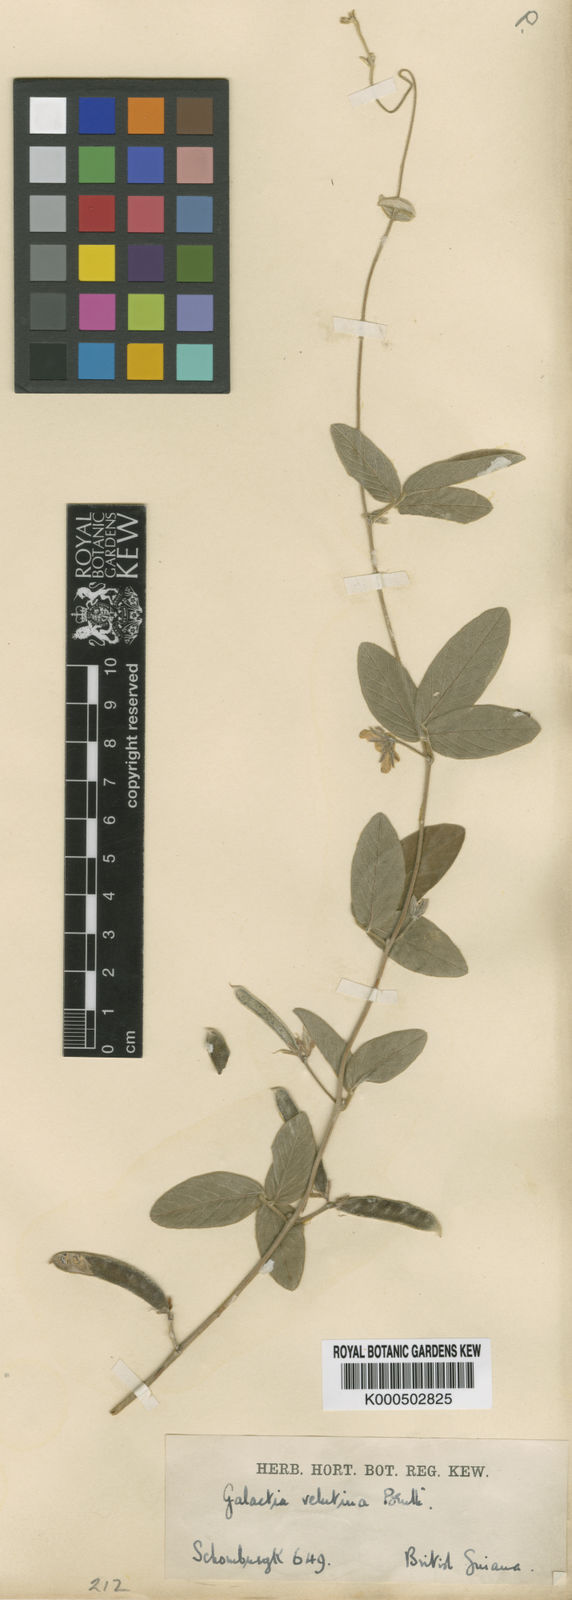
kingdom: Plantae
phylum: Tracheophyta
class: Magnoliopsida
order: Fabales
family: Fabaceae
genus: Galactia
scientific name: Galactia latisiliqua
